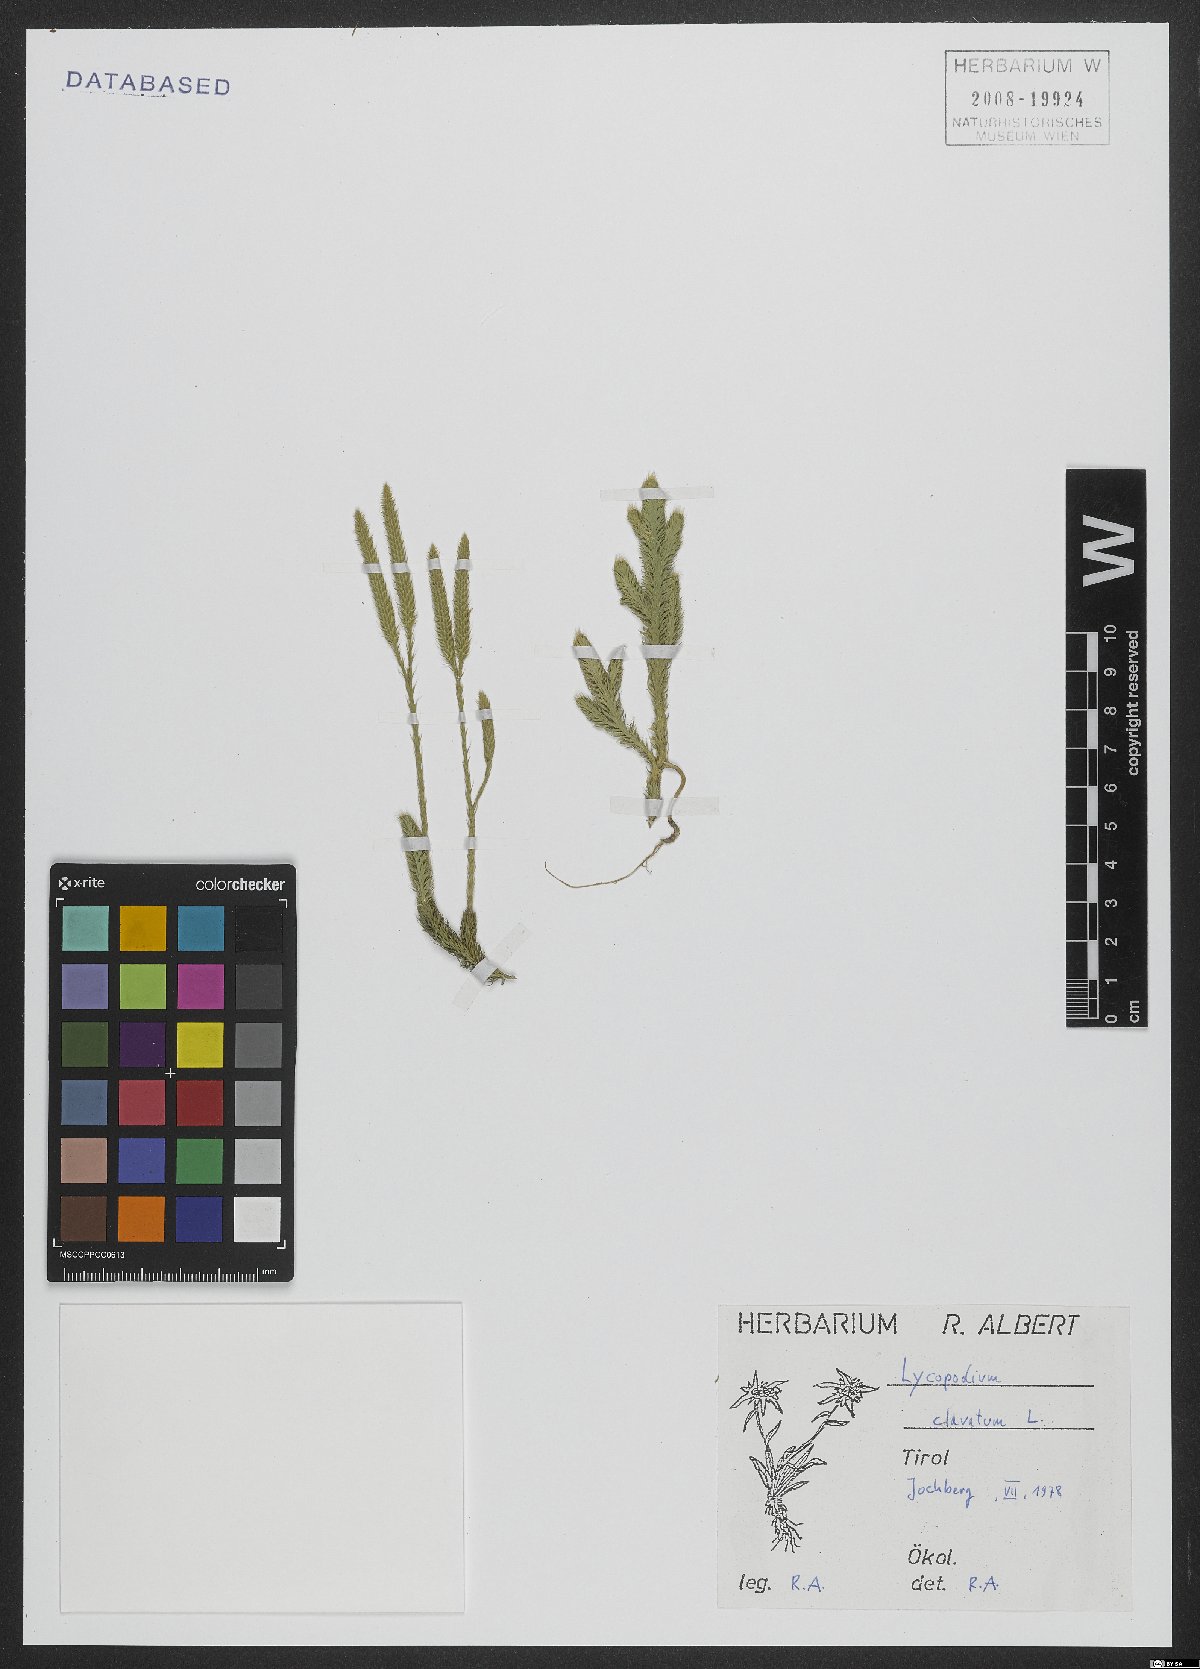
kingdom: Plantae
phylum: Tracheophyta
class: Lycopodiopsida
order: Lycopodiales
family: Lycopodiaceae
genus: Lycopodium
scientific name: Lycopodium clavatum
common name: Stag's-horn clubmoss
